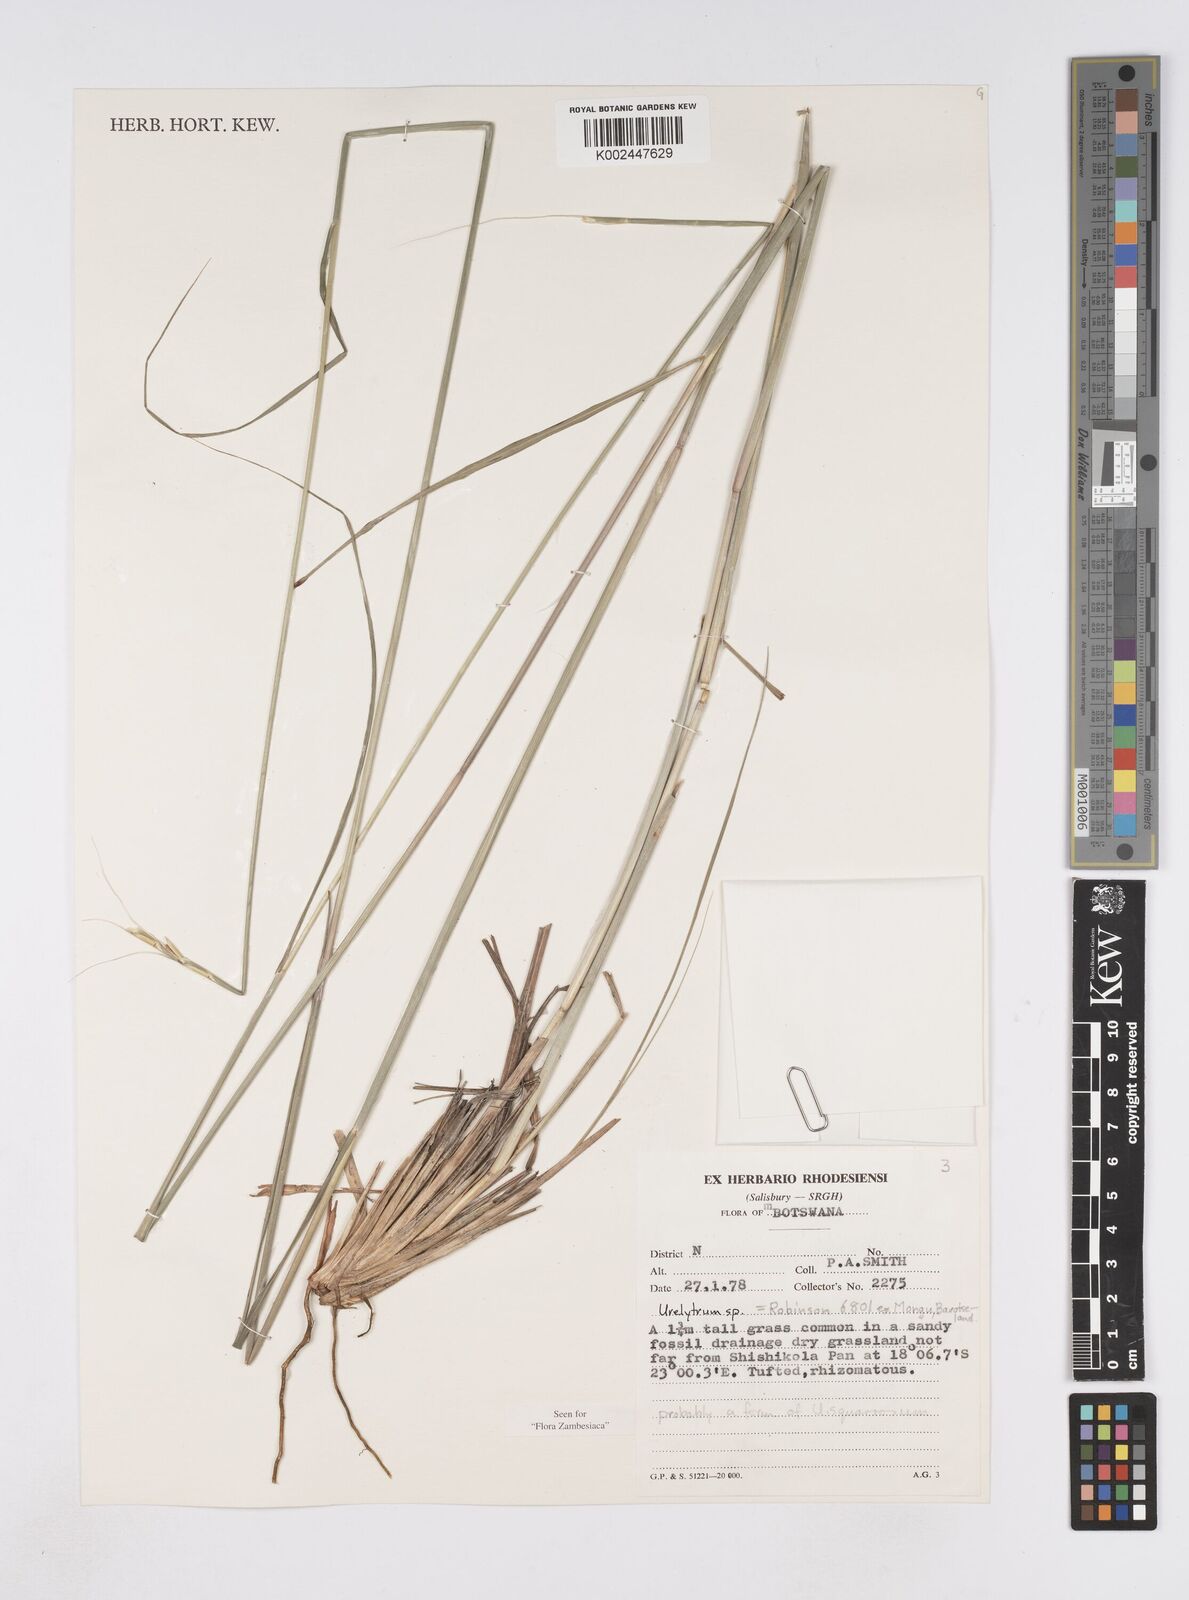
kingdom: Plantae
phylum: Tracheophyta
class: Liliopsida
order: Poales
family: Poaceae
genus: Urelytrum
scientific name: Urelytrum agropyroides
